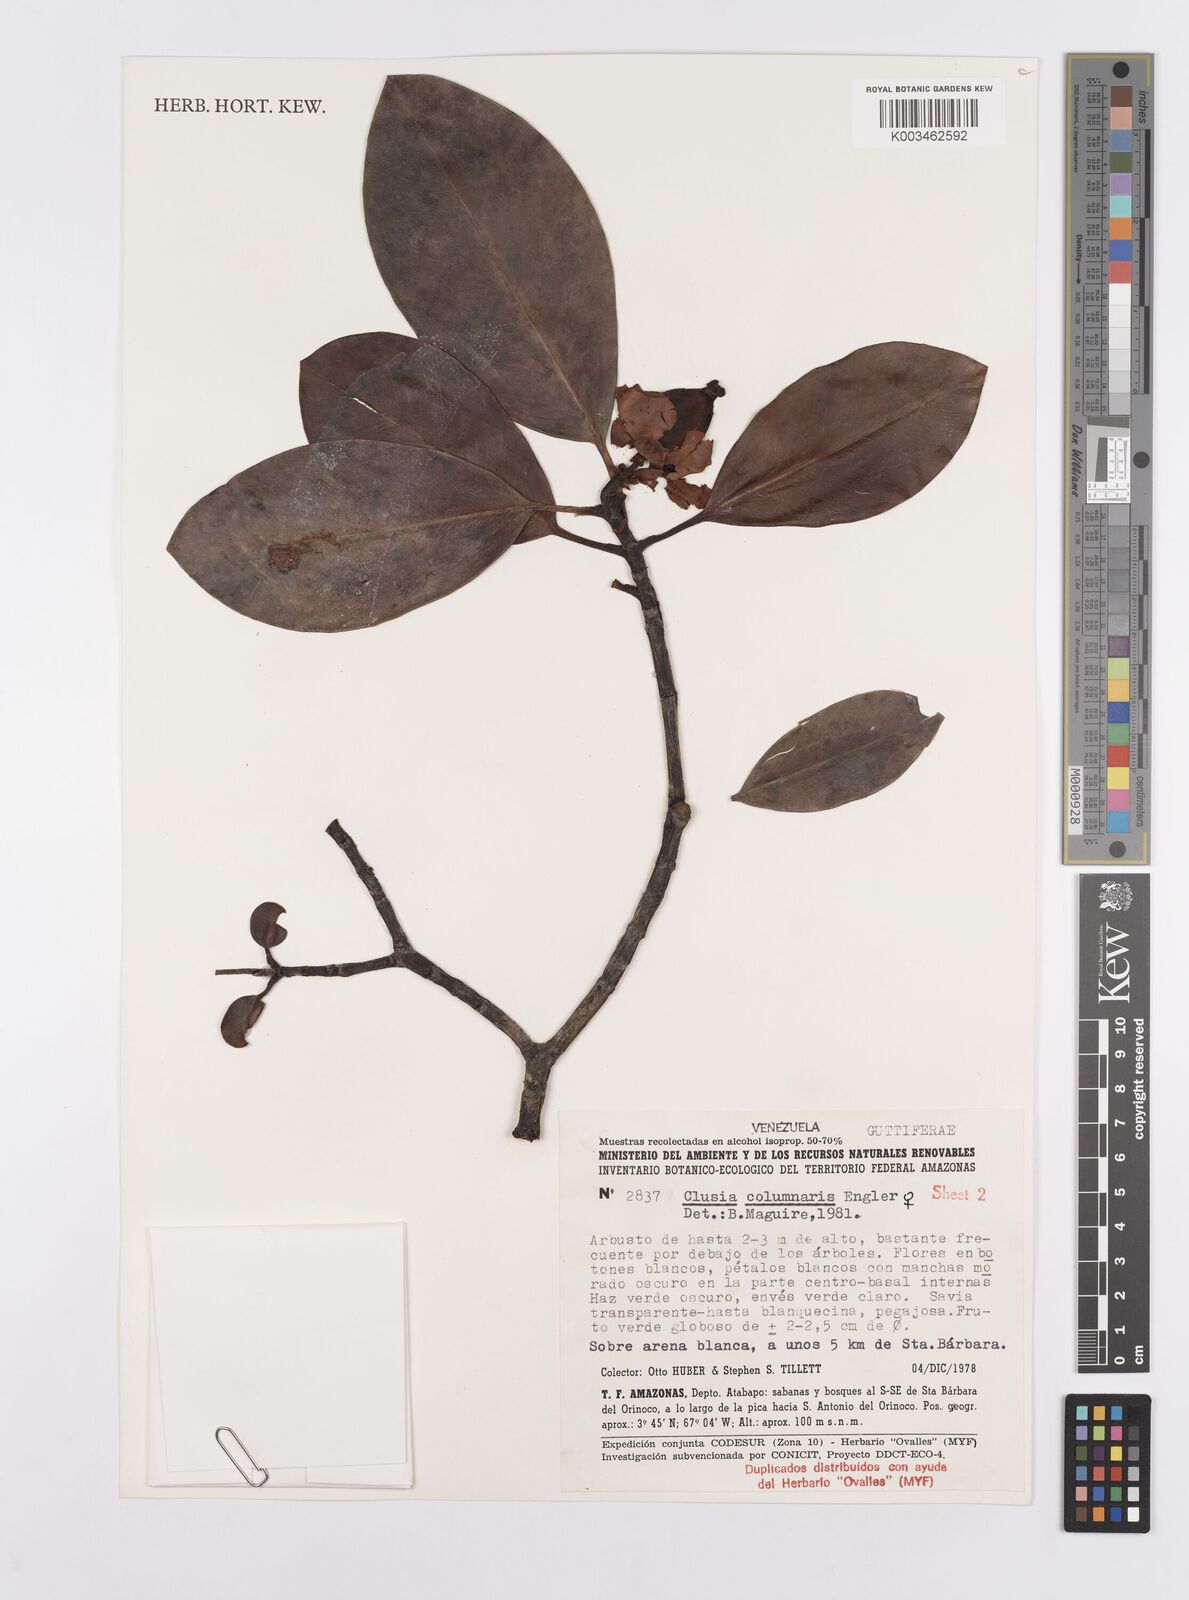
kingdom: Plantae
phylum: Tracheophyta
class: Magnoliopsida
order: Malpighiales
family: Clusiaceae
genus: Clusia
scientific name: Clusia columnaris
